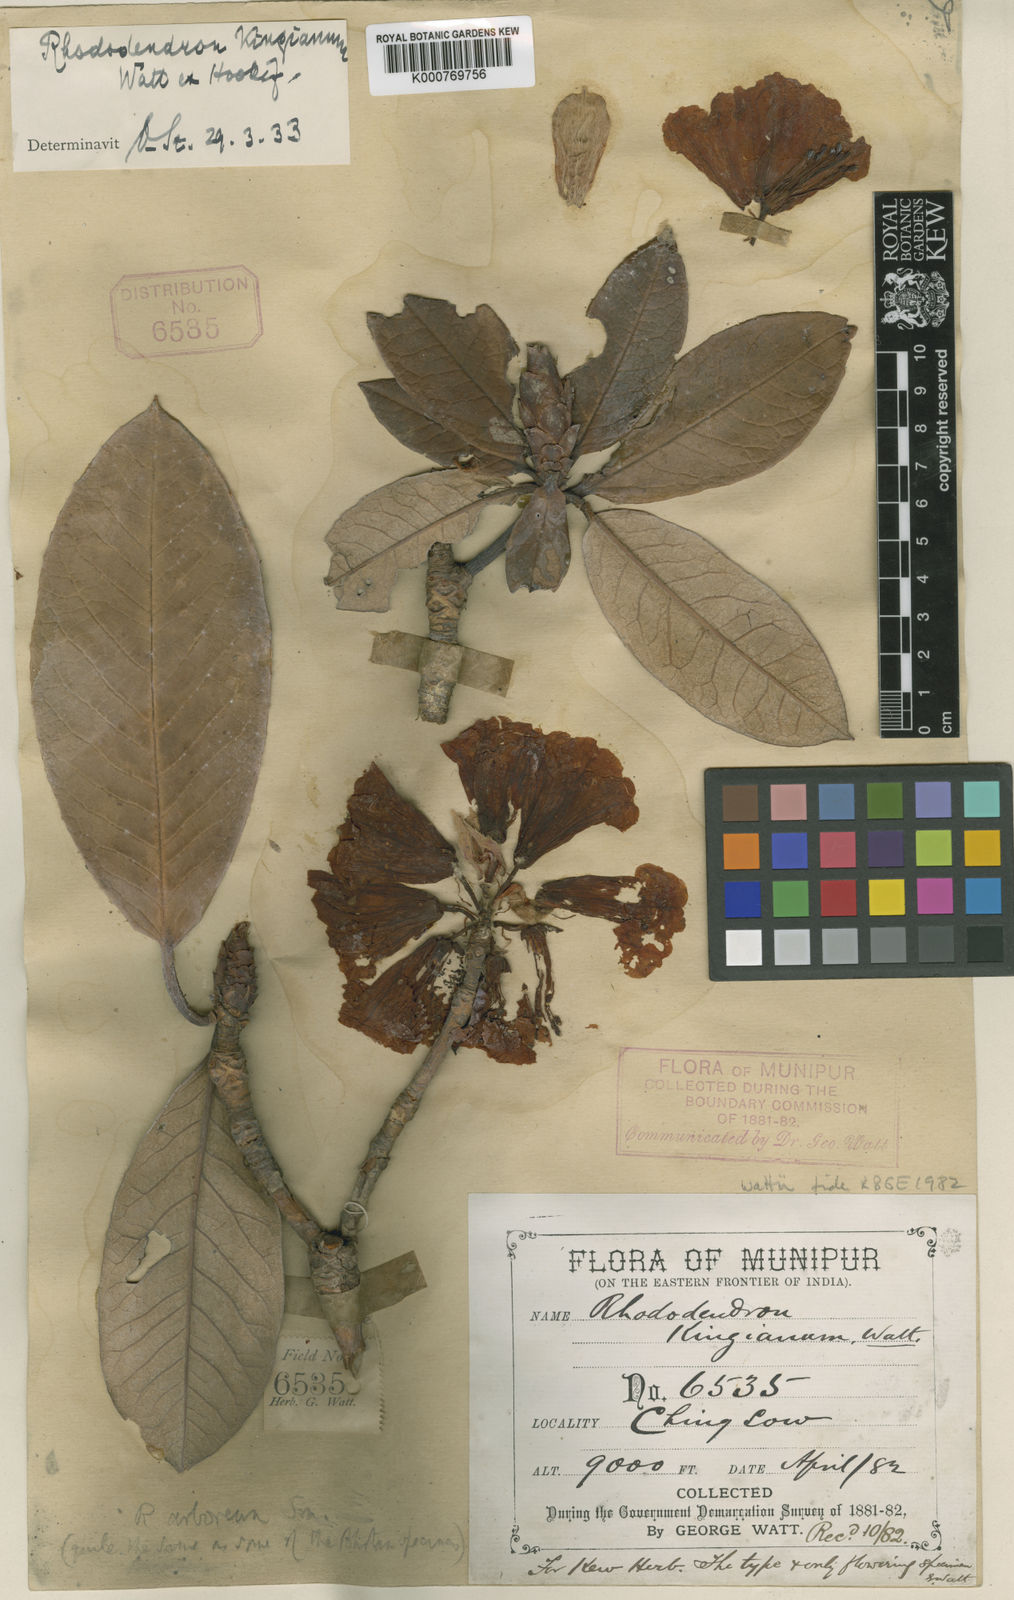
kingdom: Plantae
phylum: Tracheophyta
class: Magnoliopsida
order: Ericales
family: Ericaceae
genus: Rhododendron
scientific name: Rhododendron grande
